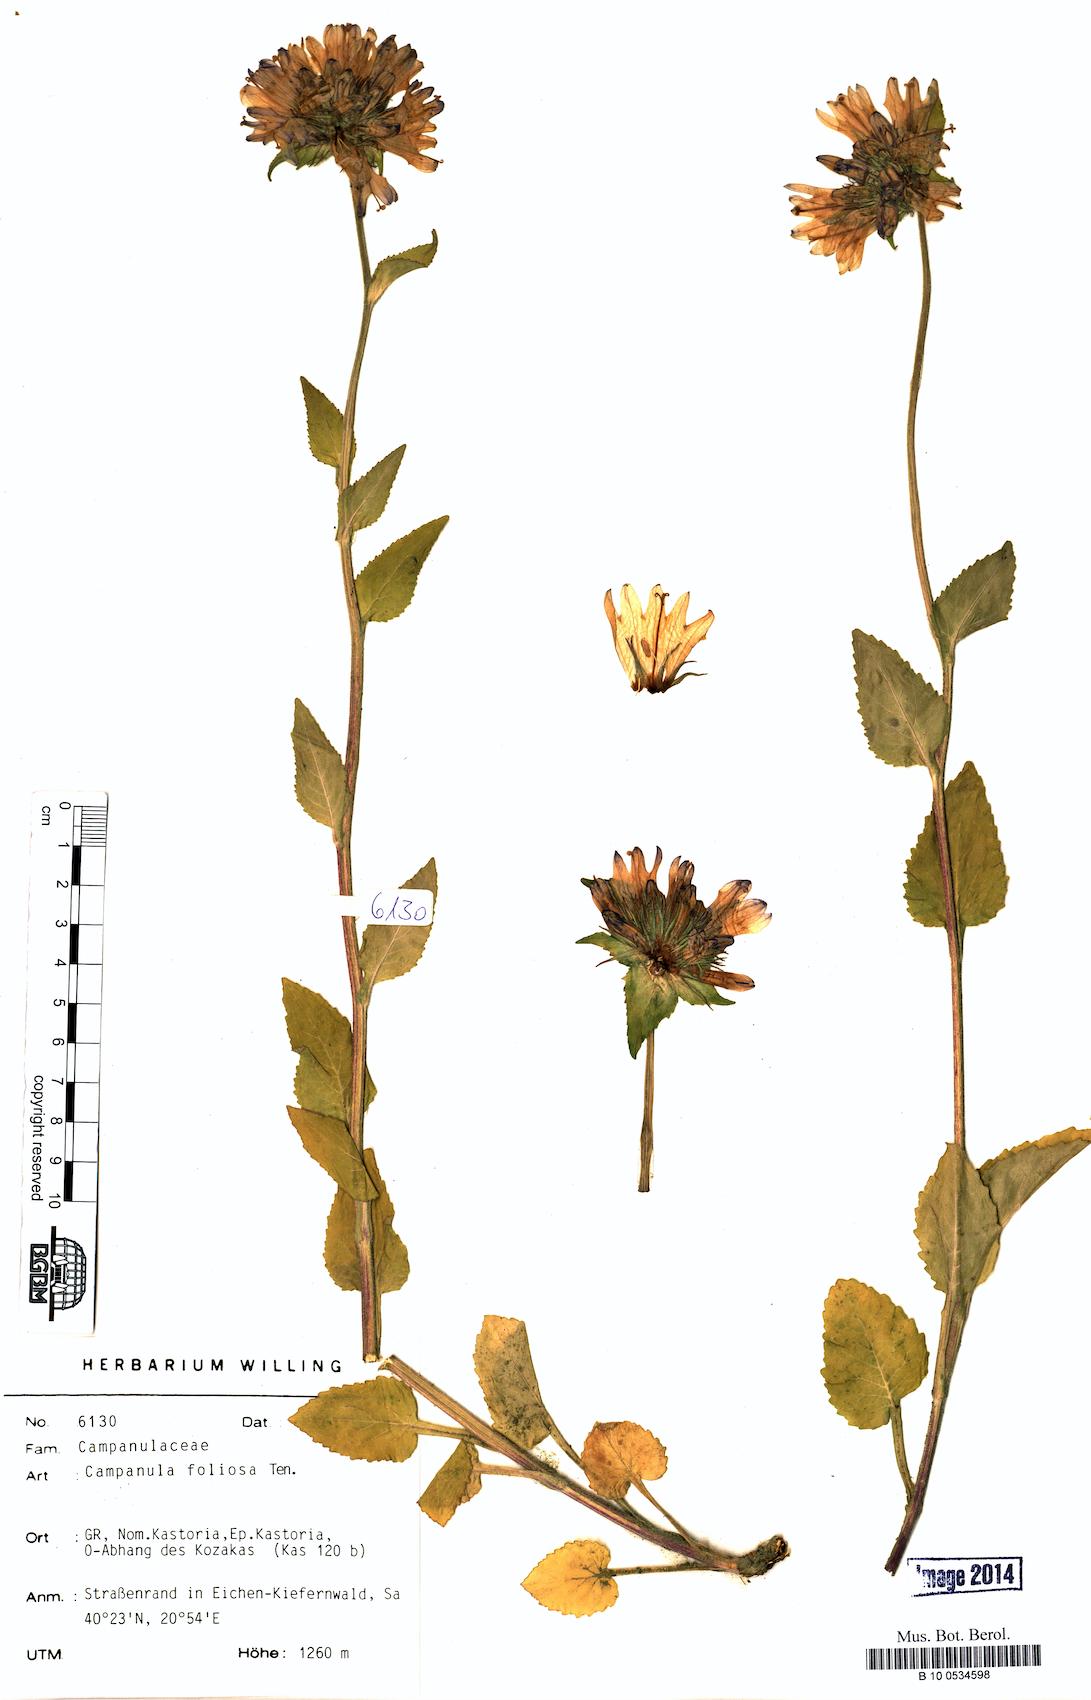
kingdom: Plantae
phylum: Tracheophyta
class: Magnoliopsida
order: Asterales
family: Campanulaceae
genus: Campanula
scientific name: Campanula foliosa
